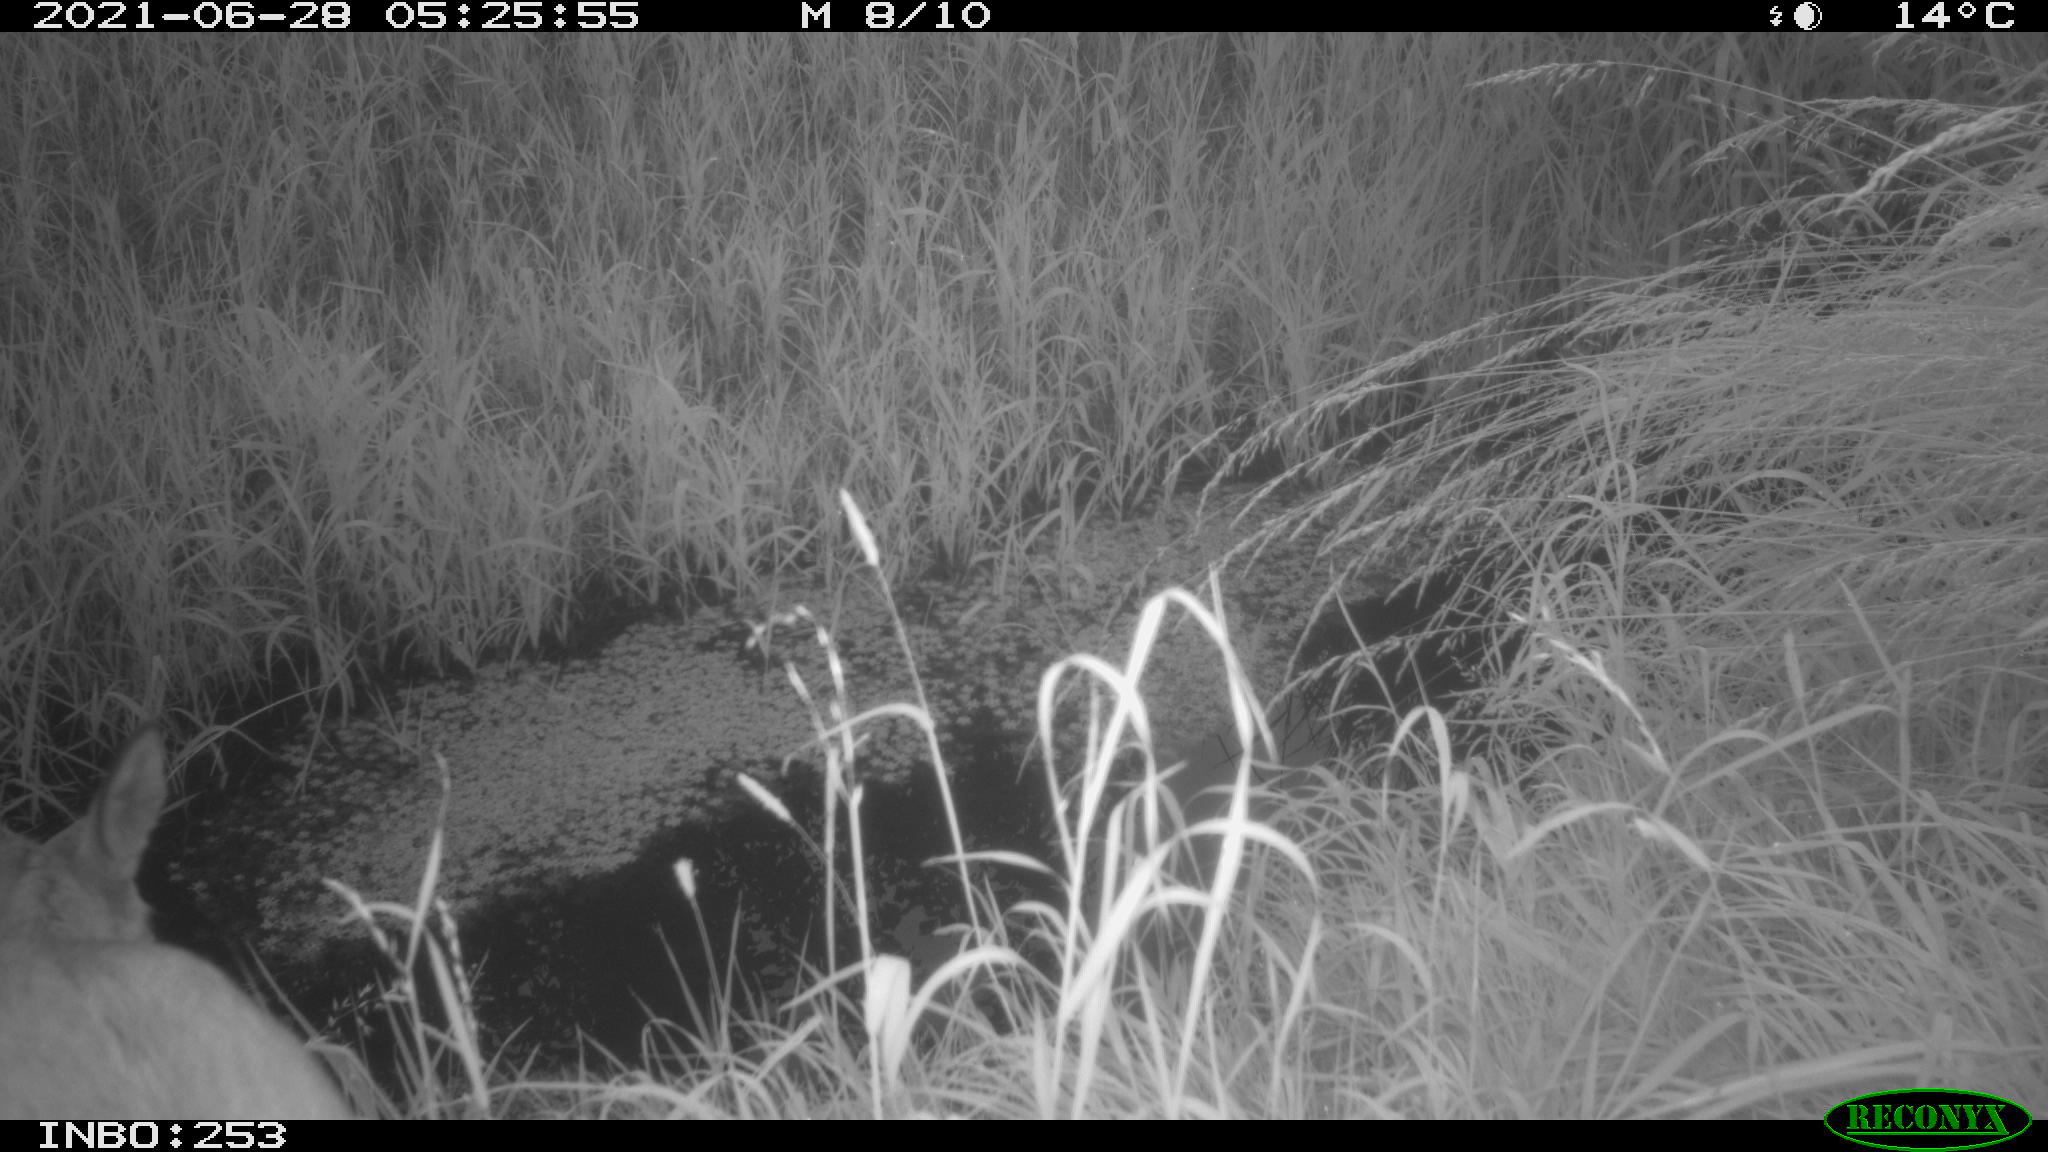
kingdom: Animalia
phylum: Chordata
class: Mammalia
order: Artiodactyla
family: Cervidae
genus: Capreolus
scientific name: Capreolus capreolus
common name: Western roe deer
